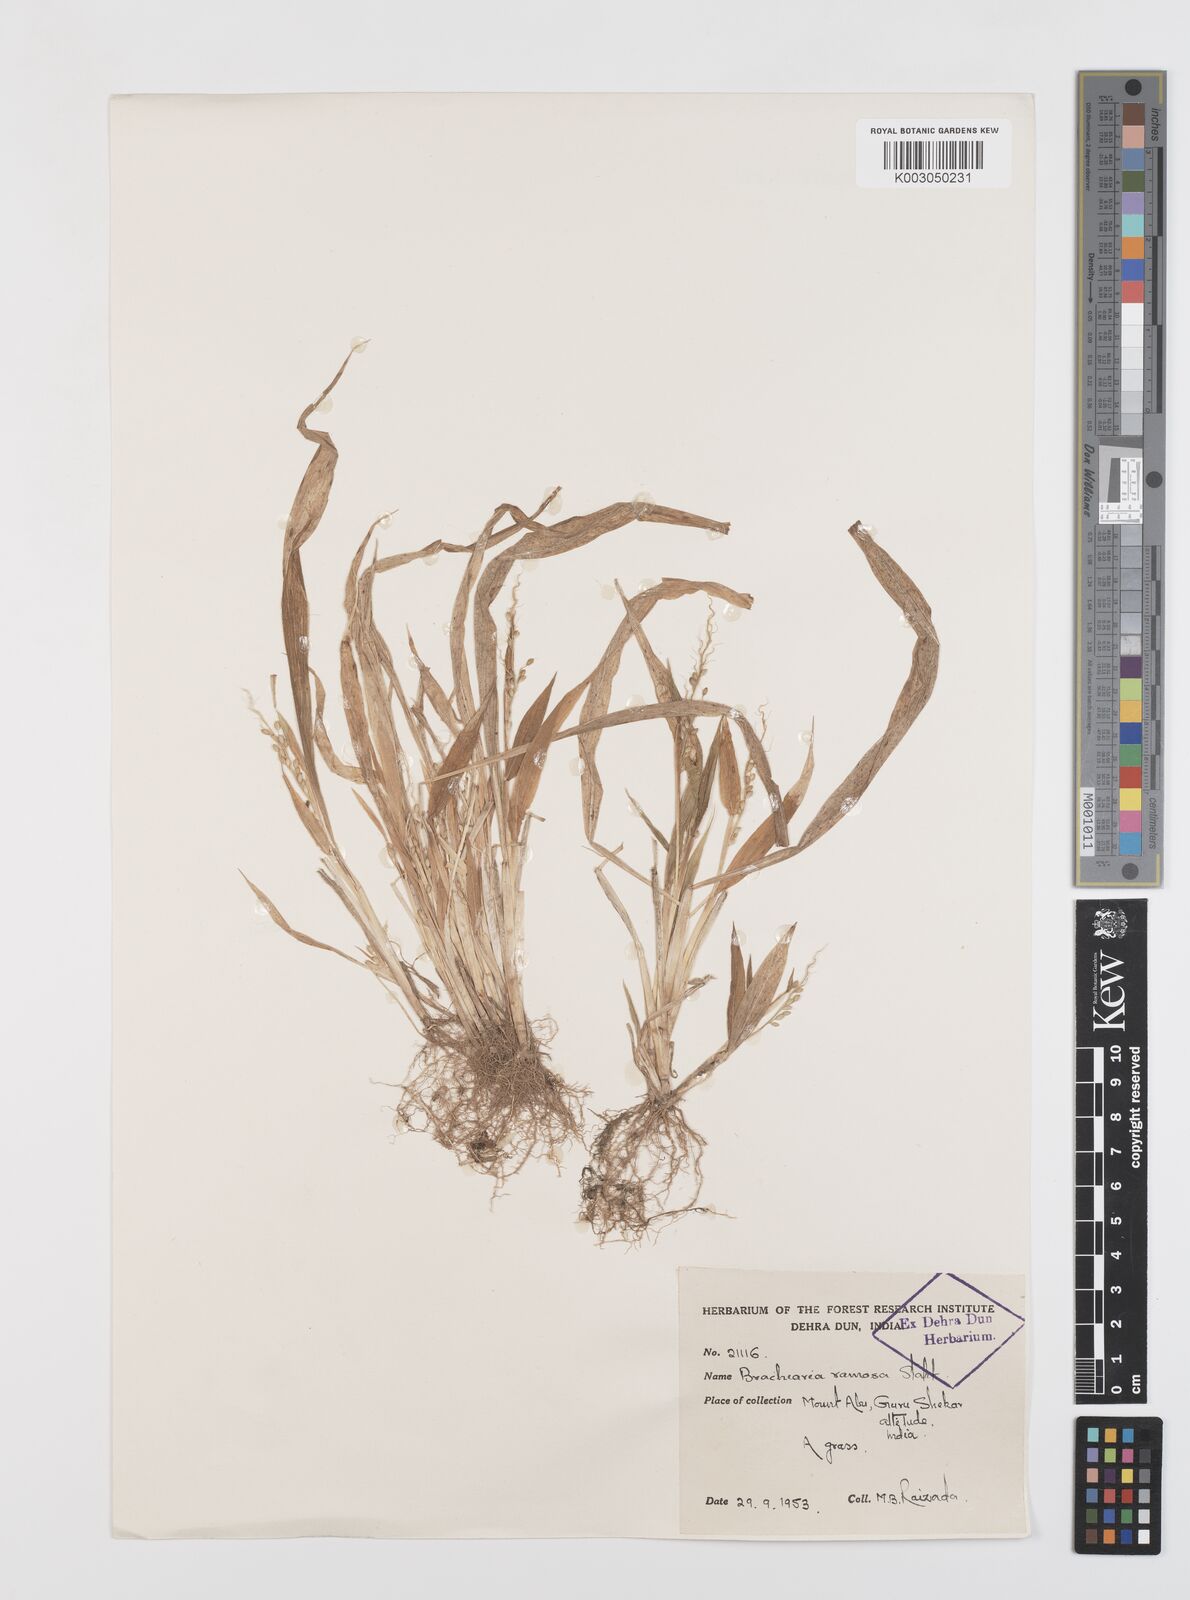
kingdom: Plantae
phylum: Tracheophyta
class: Liliopsida
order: Poales
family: Poaceae
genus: Urochloa
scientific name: Urochloa ramosa
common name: Browntop millet
